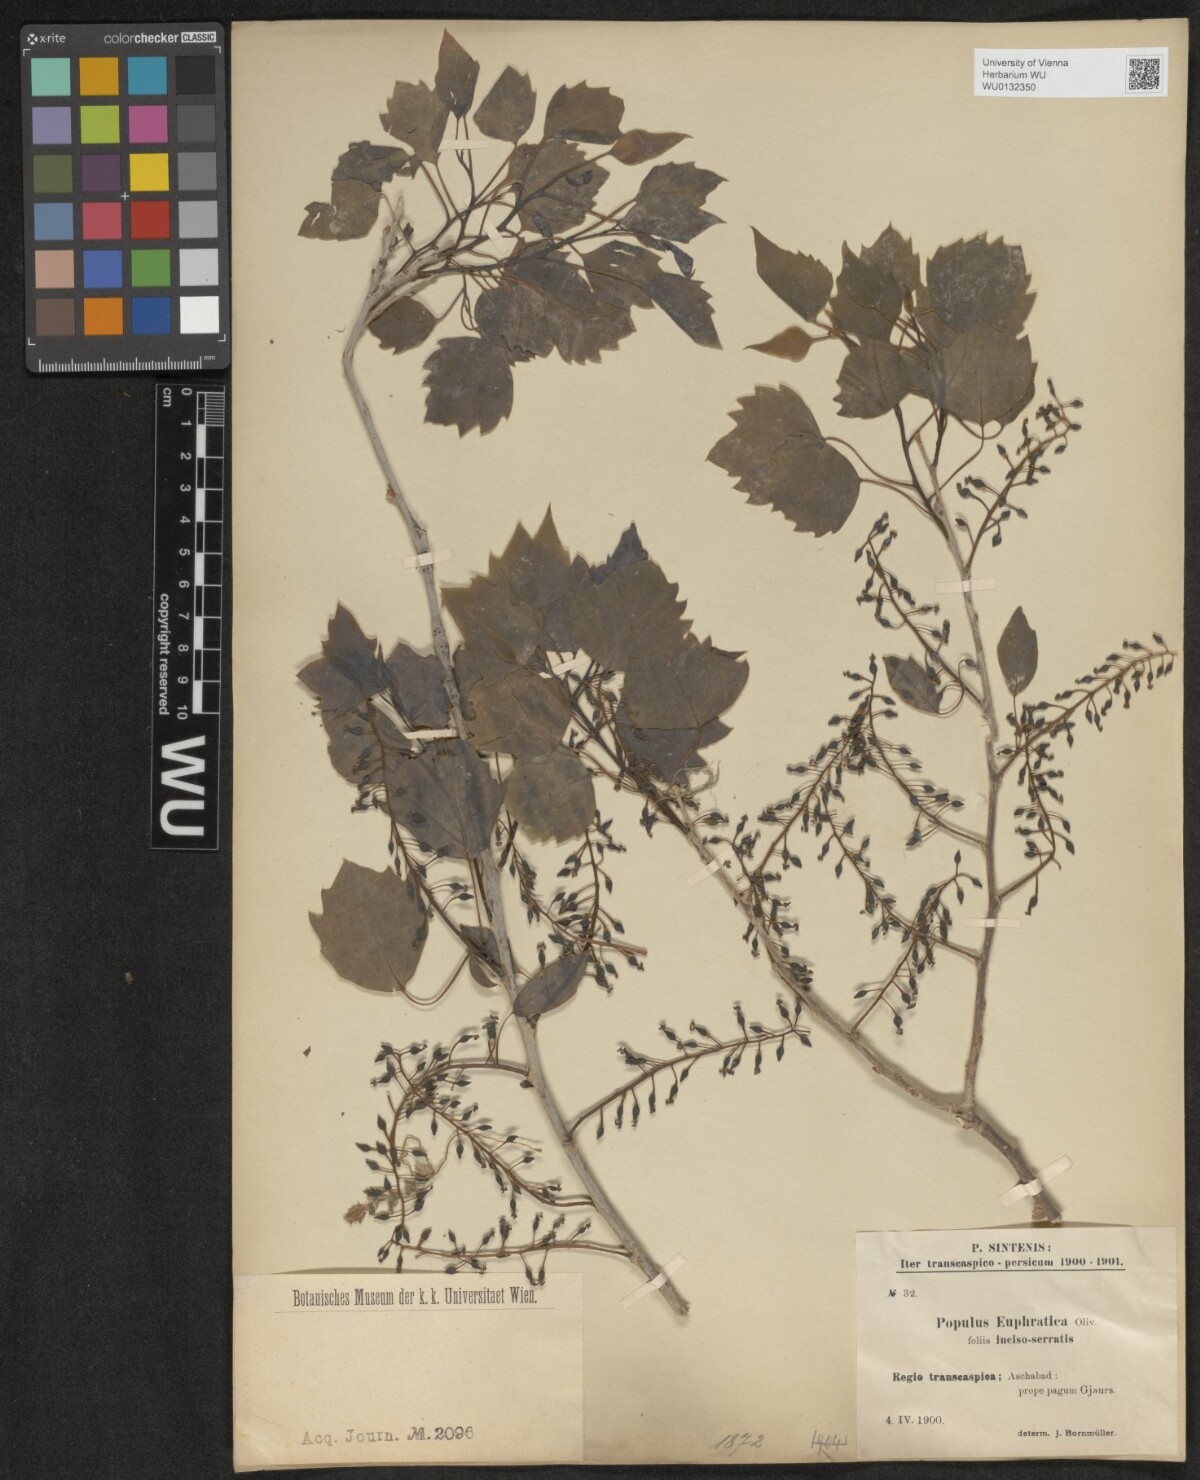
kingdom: Plantae
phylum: Tracheophyta
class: Magnoliopsida
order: Malpighiales
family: Salicaceae
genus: Populus
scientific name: Populus euphratica
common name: Euphrates poplar
